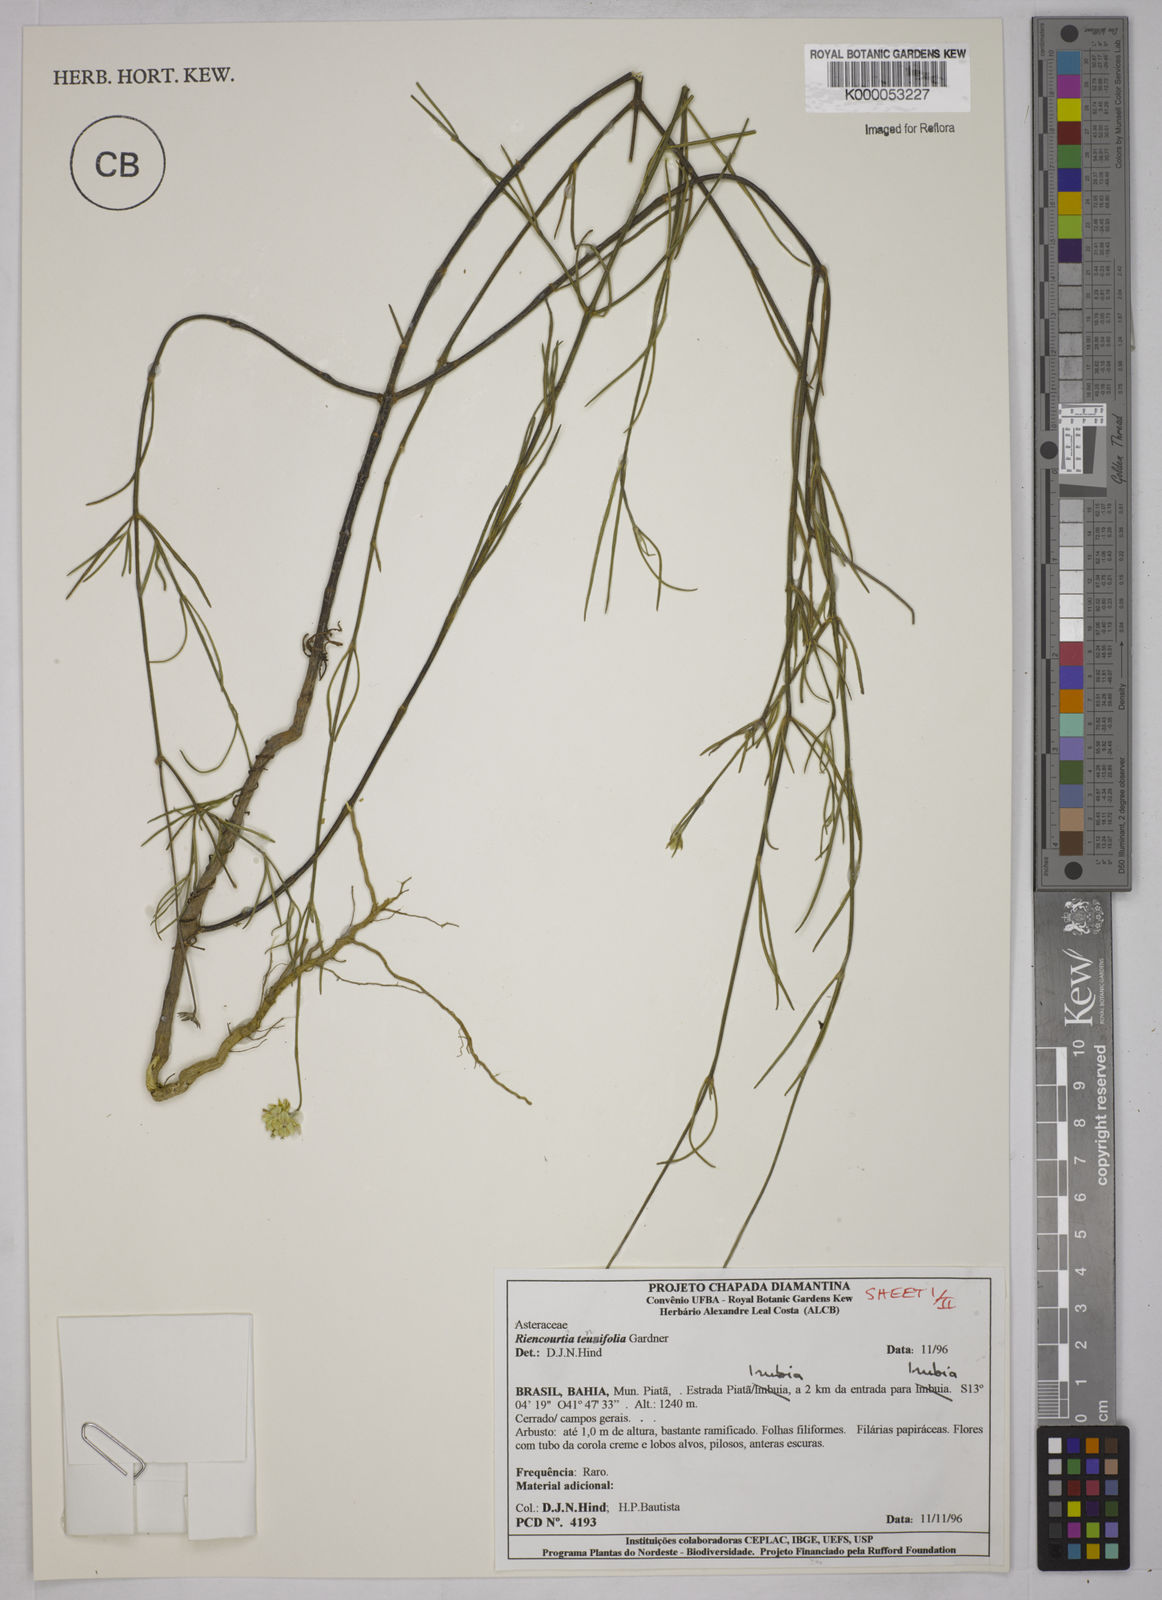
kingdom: Plantae
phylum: Tracheophyta
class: Magnoliopsida
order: Asterales
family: Asteraceae
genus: Riencourtia
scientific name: Riencourtia tenuifolia
